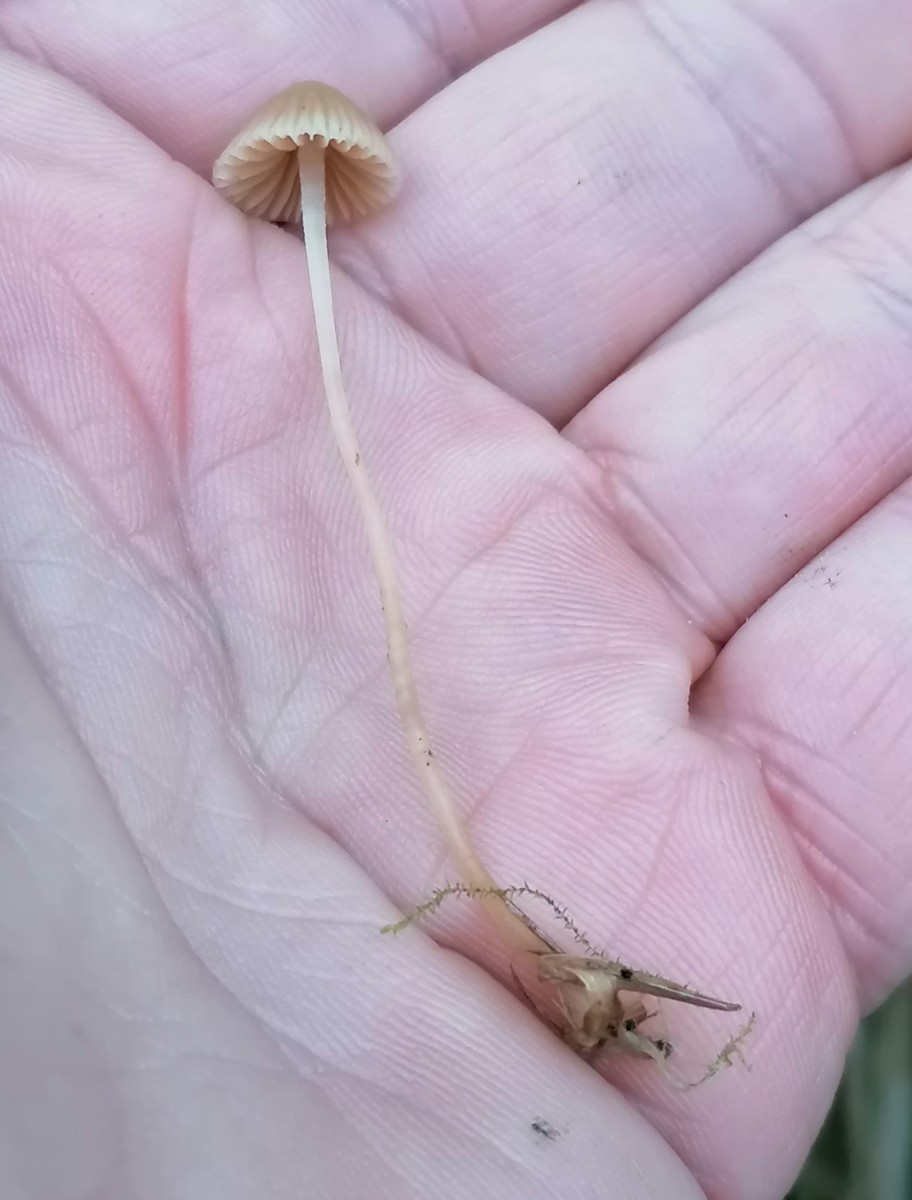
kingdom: Fungi
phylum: Basidiomycota
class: Agaricomycetes
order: Agaricales
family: Hymenogastraceae
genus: Galerina
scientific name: Galerina
